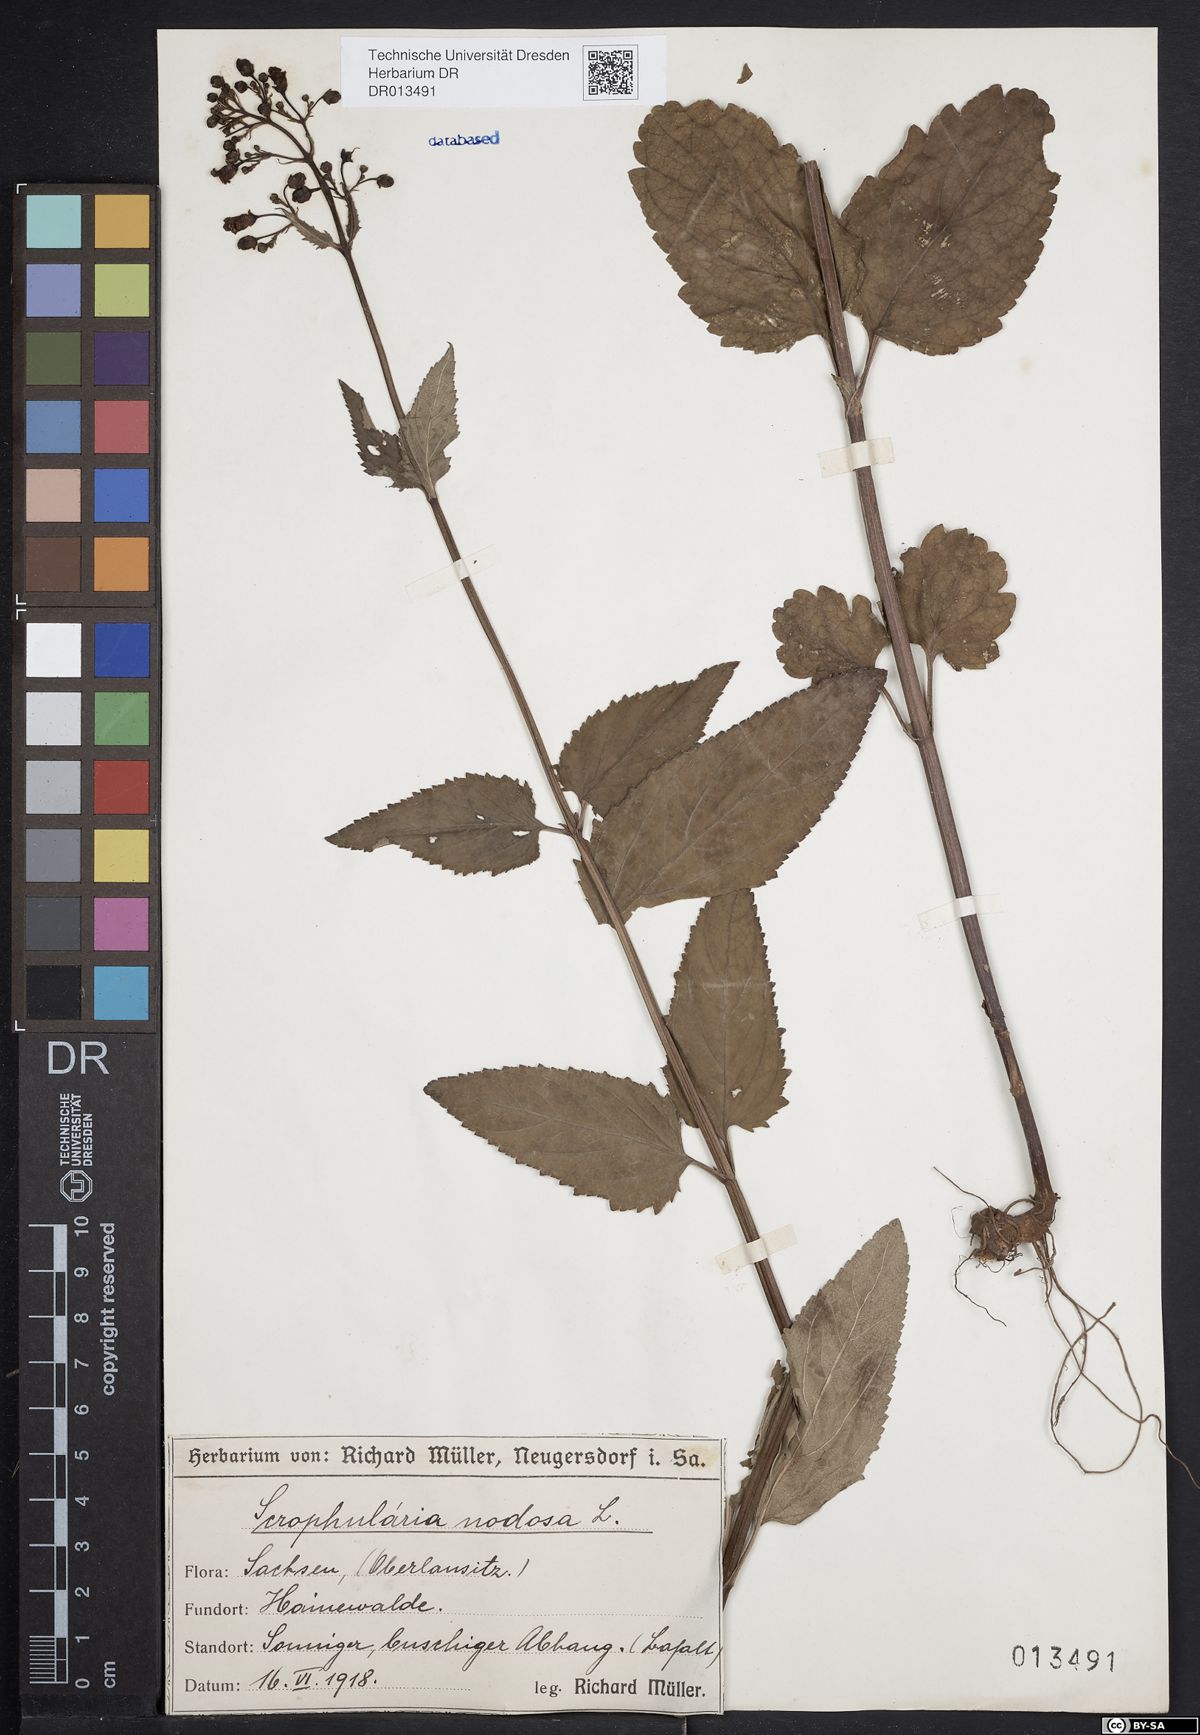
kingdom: Plantae
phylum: Tracheophyta
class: Magnoliopsida
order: Lamiales
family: Scrophulariaceae
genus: Scrophularia
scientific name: Scrophularia nodosa
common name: Common figwort
